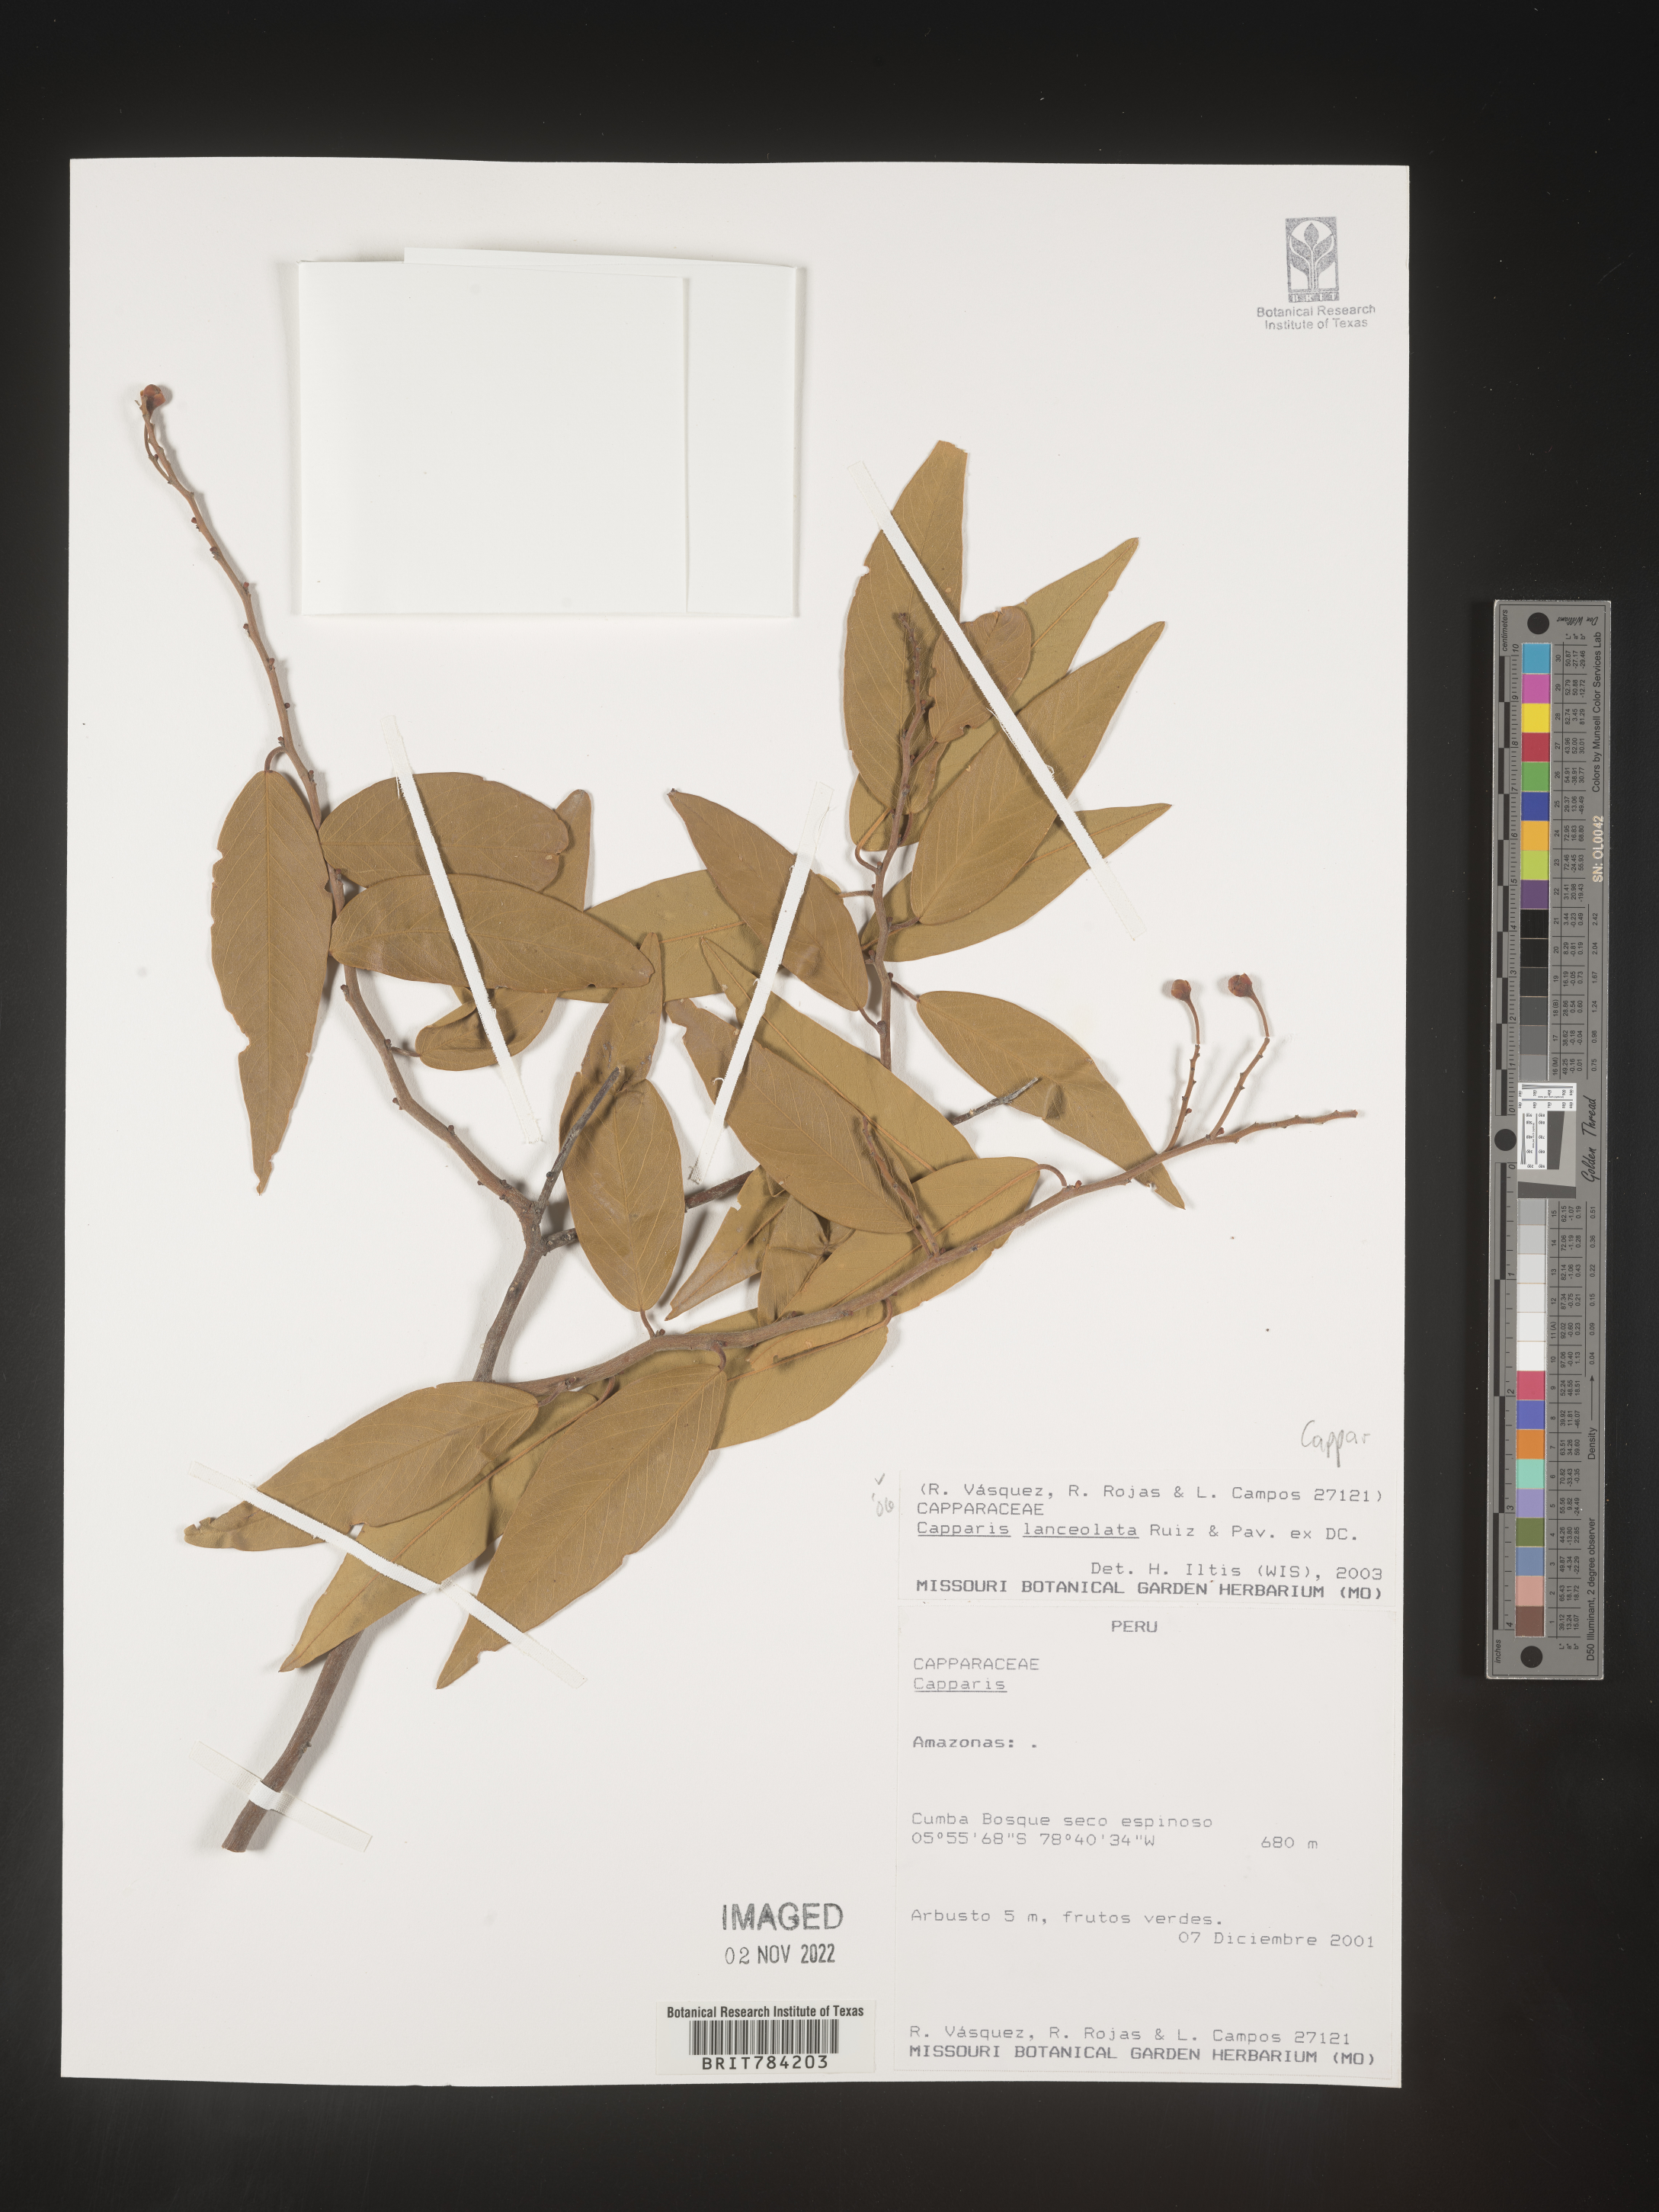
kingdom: Plantae
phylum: Tracheophyta
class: Magnoliopsida
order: Brassicales
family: Capparaceae
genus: Capparis
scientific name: Capparis
